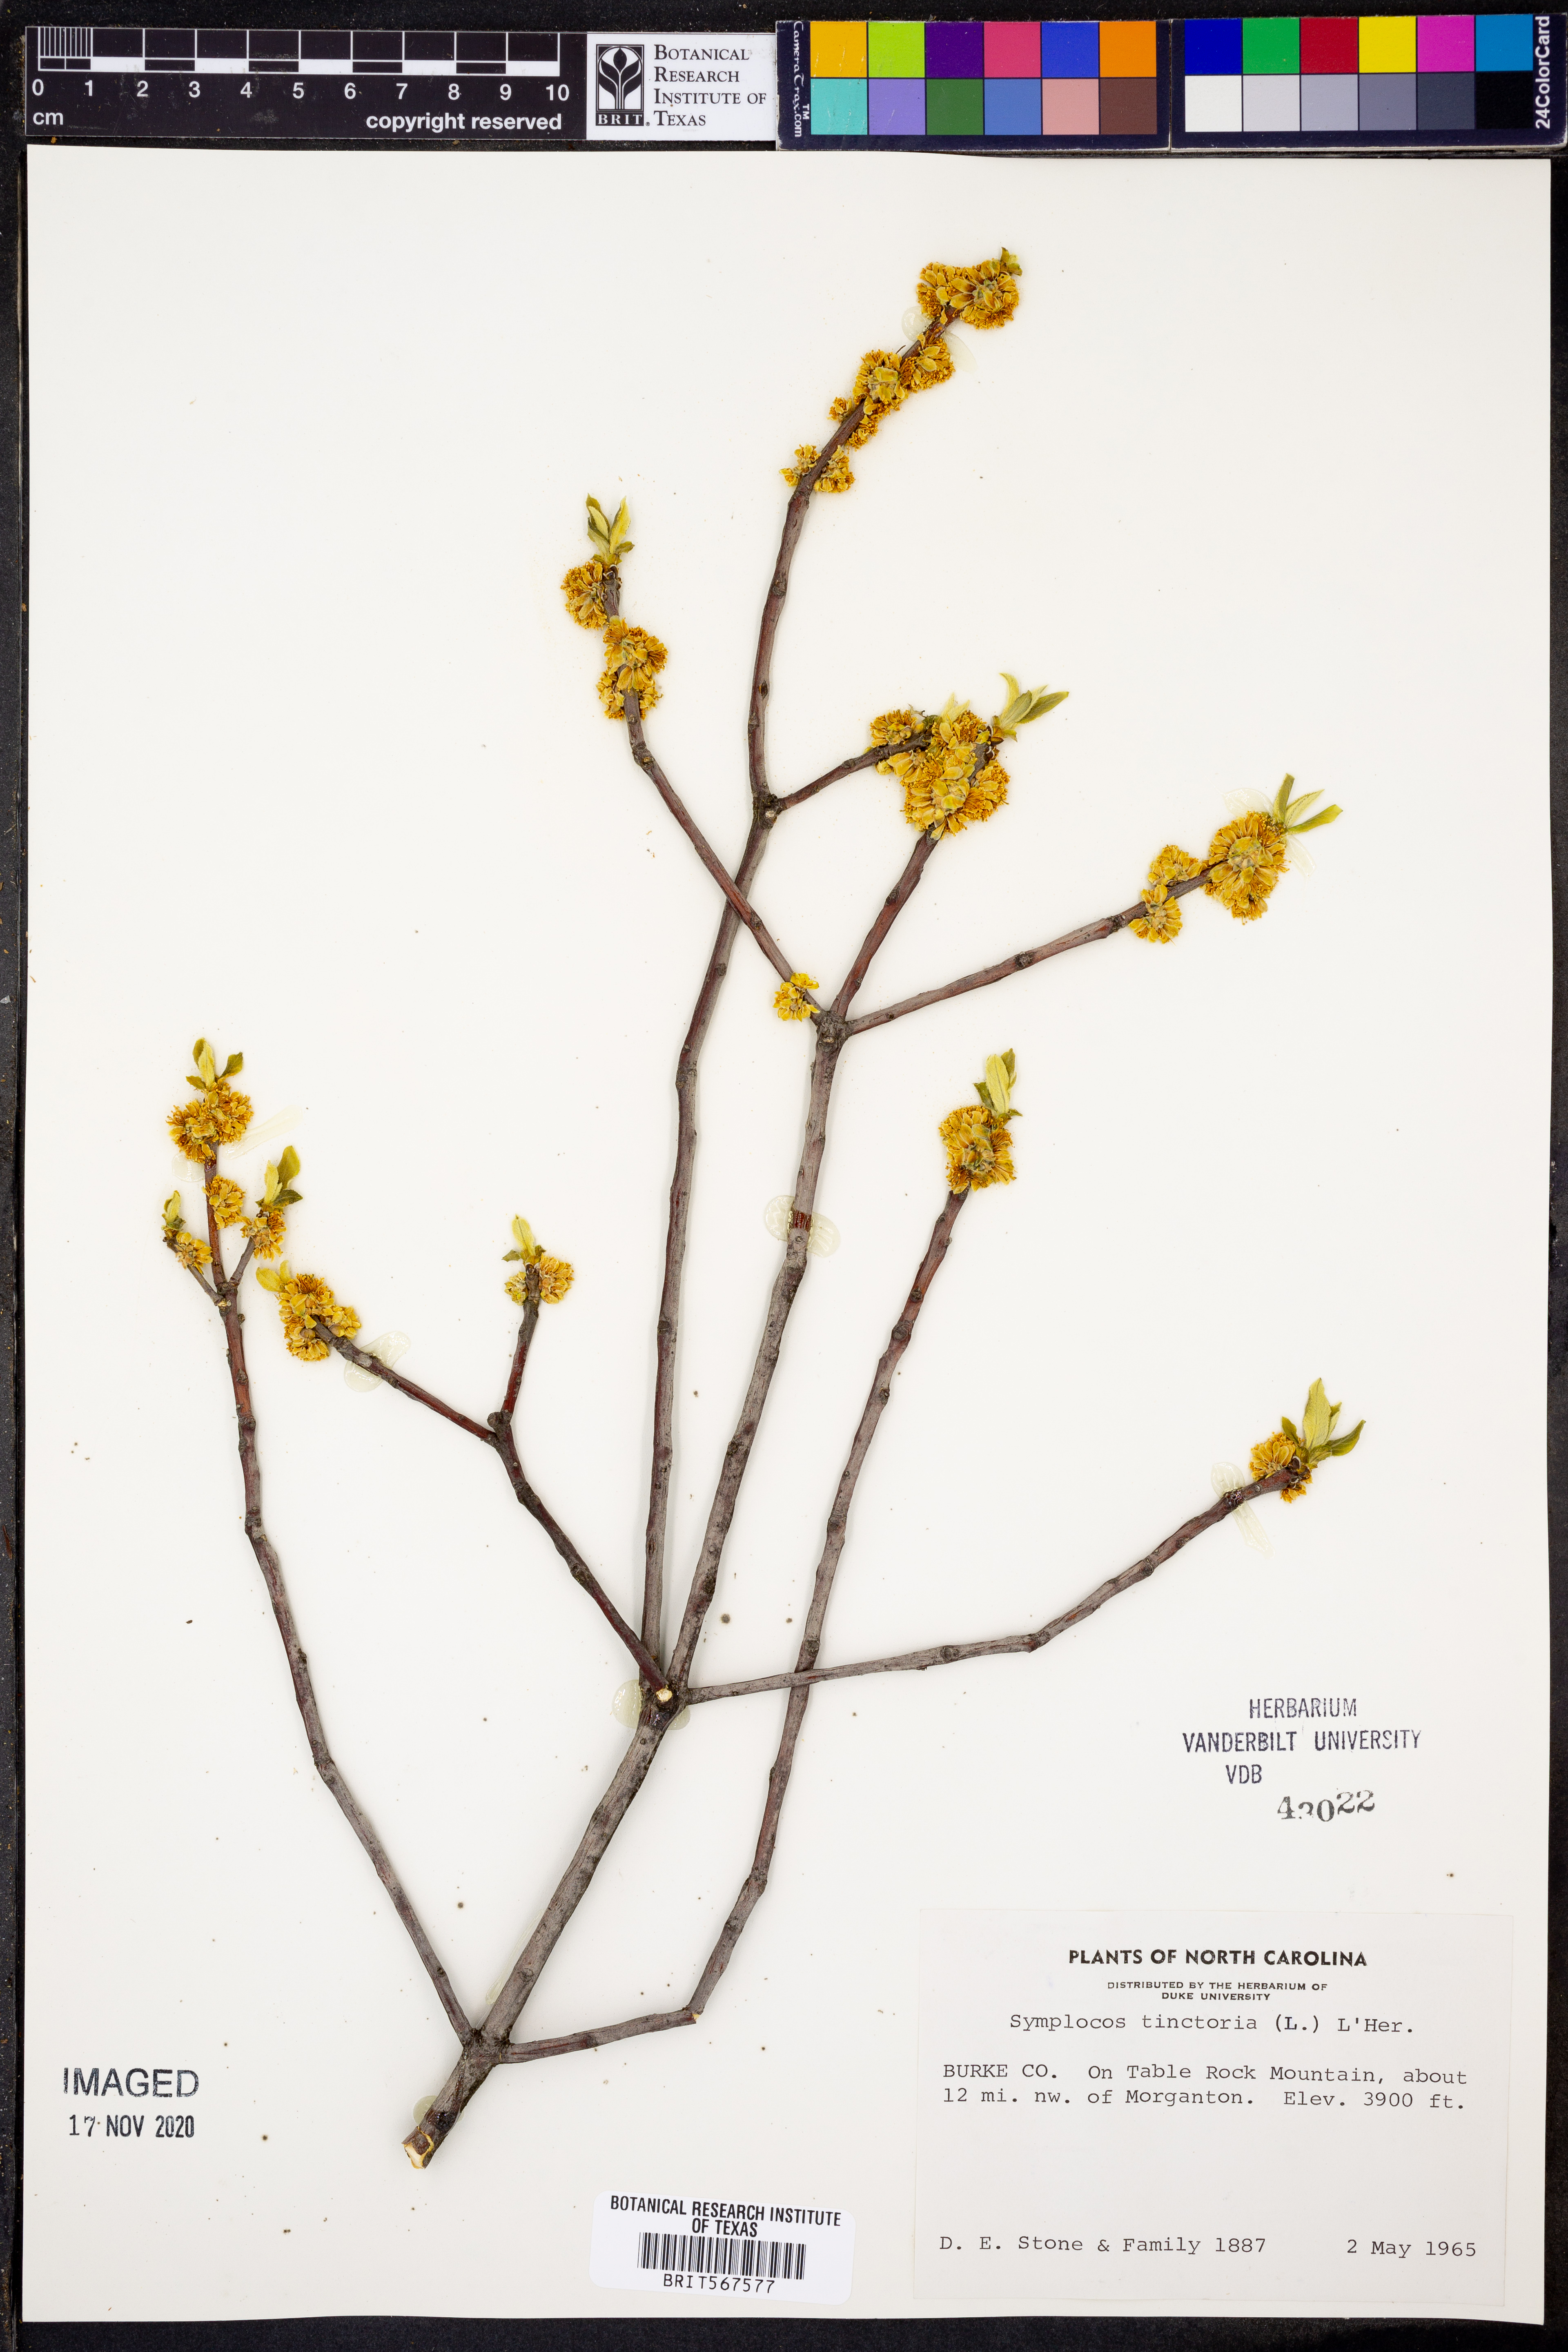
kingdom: Plantae
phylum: Tracheophyta
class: Magnoliopsida
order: Ericales
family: Symplocaceae
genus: Symplocos
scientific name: Symplocos tinctoria
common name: Horse-sugar
